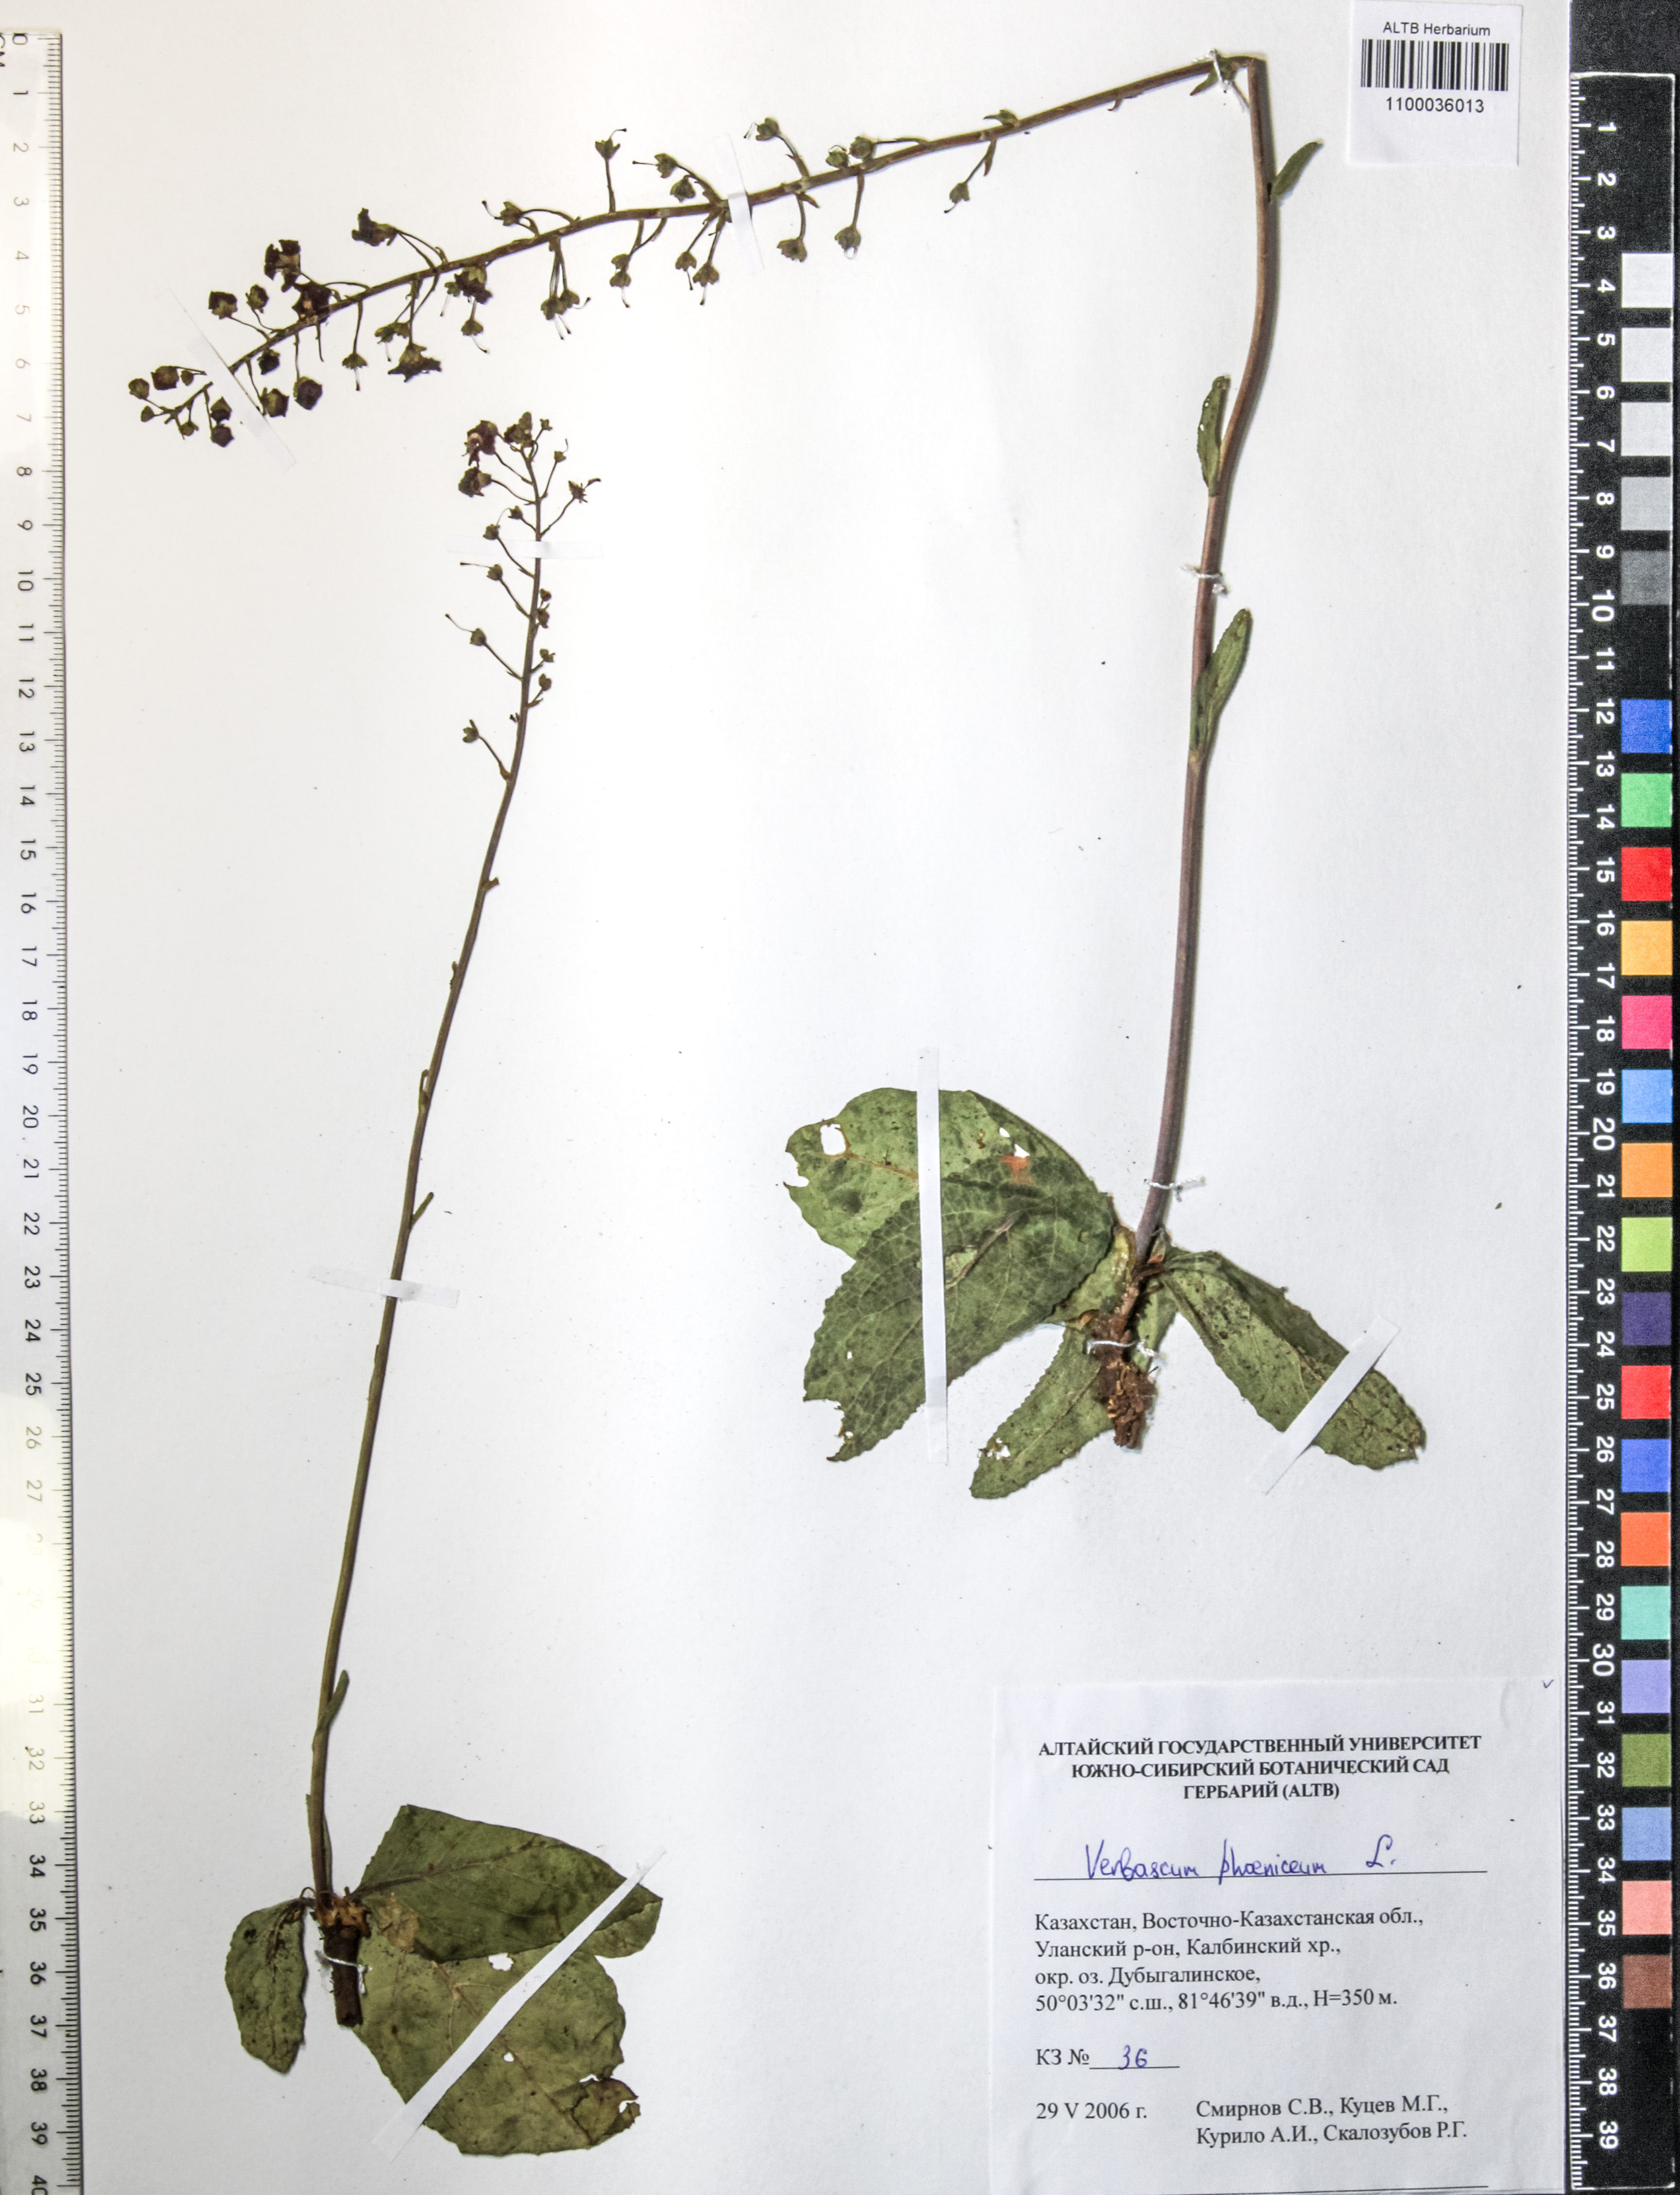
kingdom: Plantae
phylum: Tracheophyta
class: Magnoliopsida
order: Lamiales
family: Scrophulariaceae
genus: Verbascum
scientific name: Verbascum phoeniceum
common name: Purple mullein
